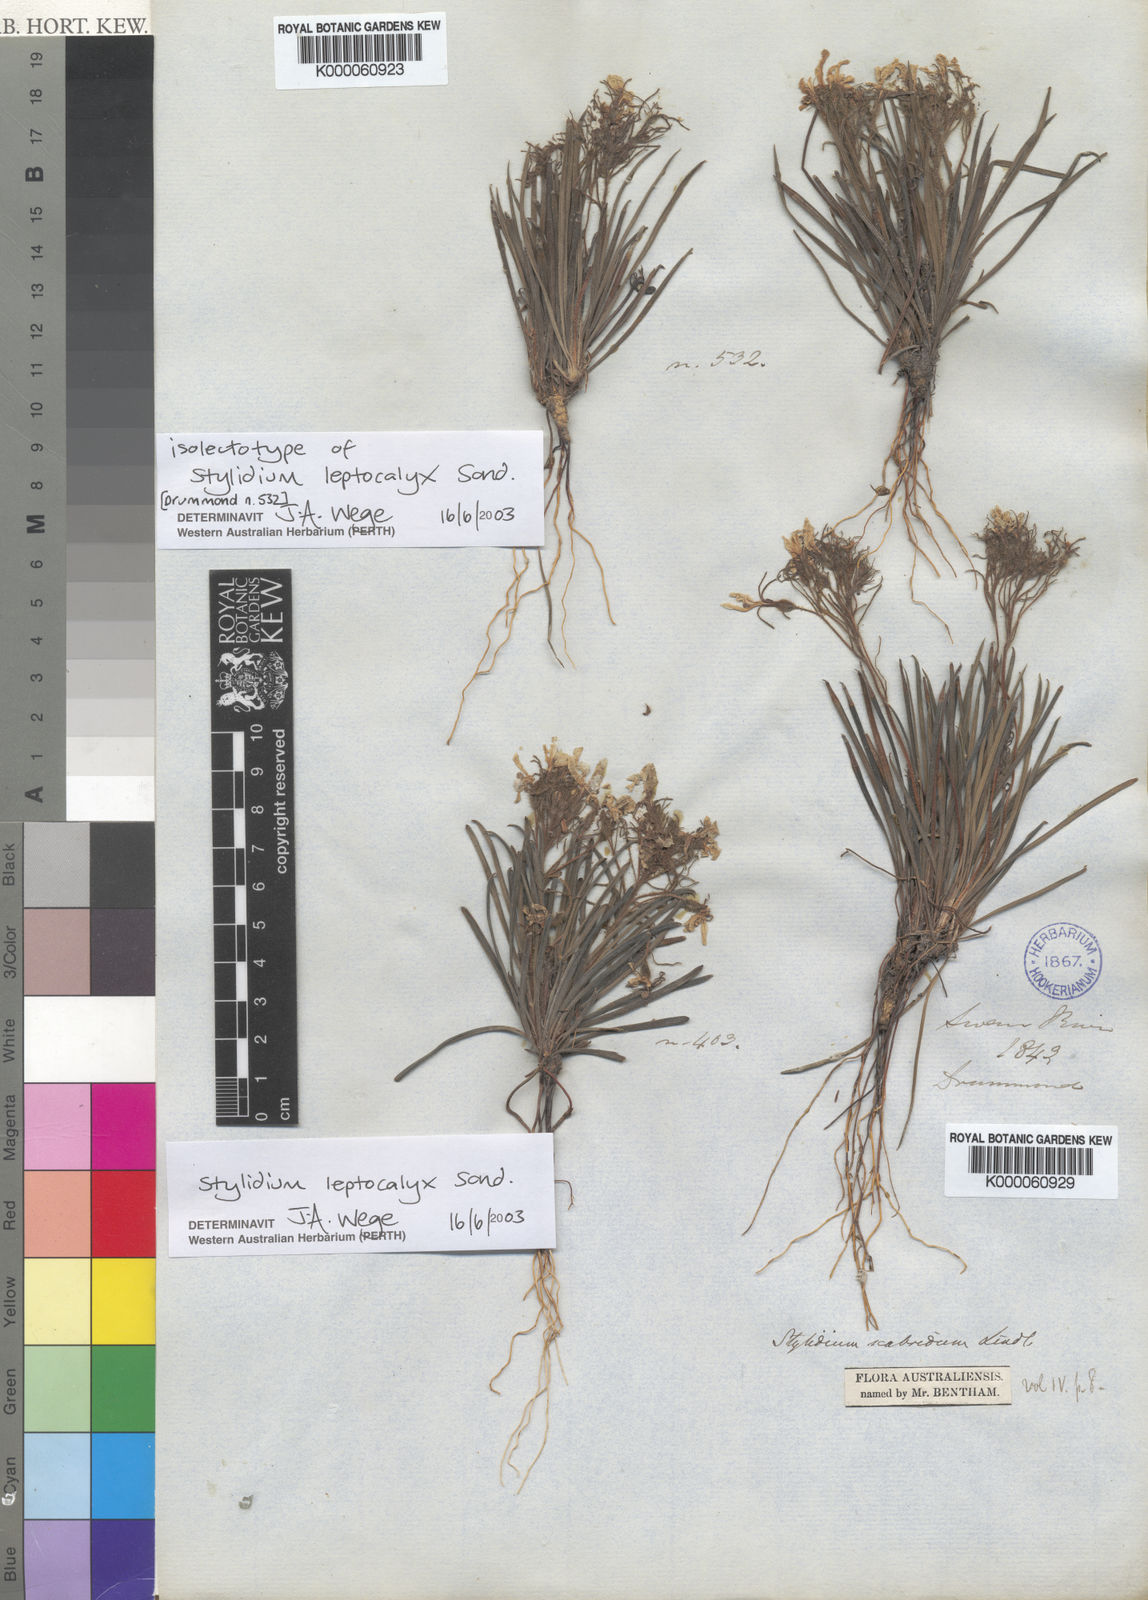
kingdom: Plantae
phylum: Tracheophyta
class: Magnoliopsida
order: Asterales
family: Stylidiaceae
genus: Stylidium
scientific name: Stylidium leptocalyx
